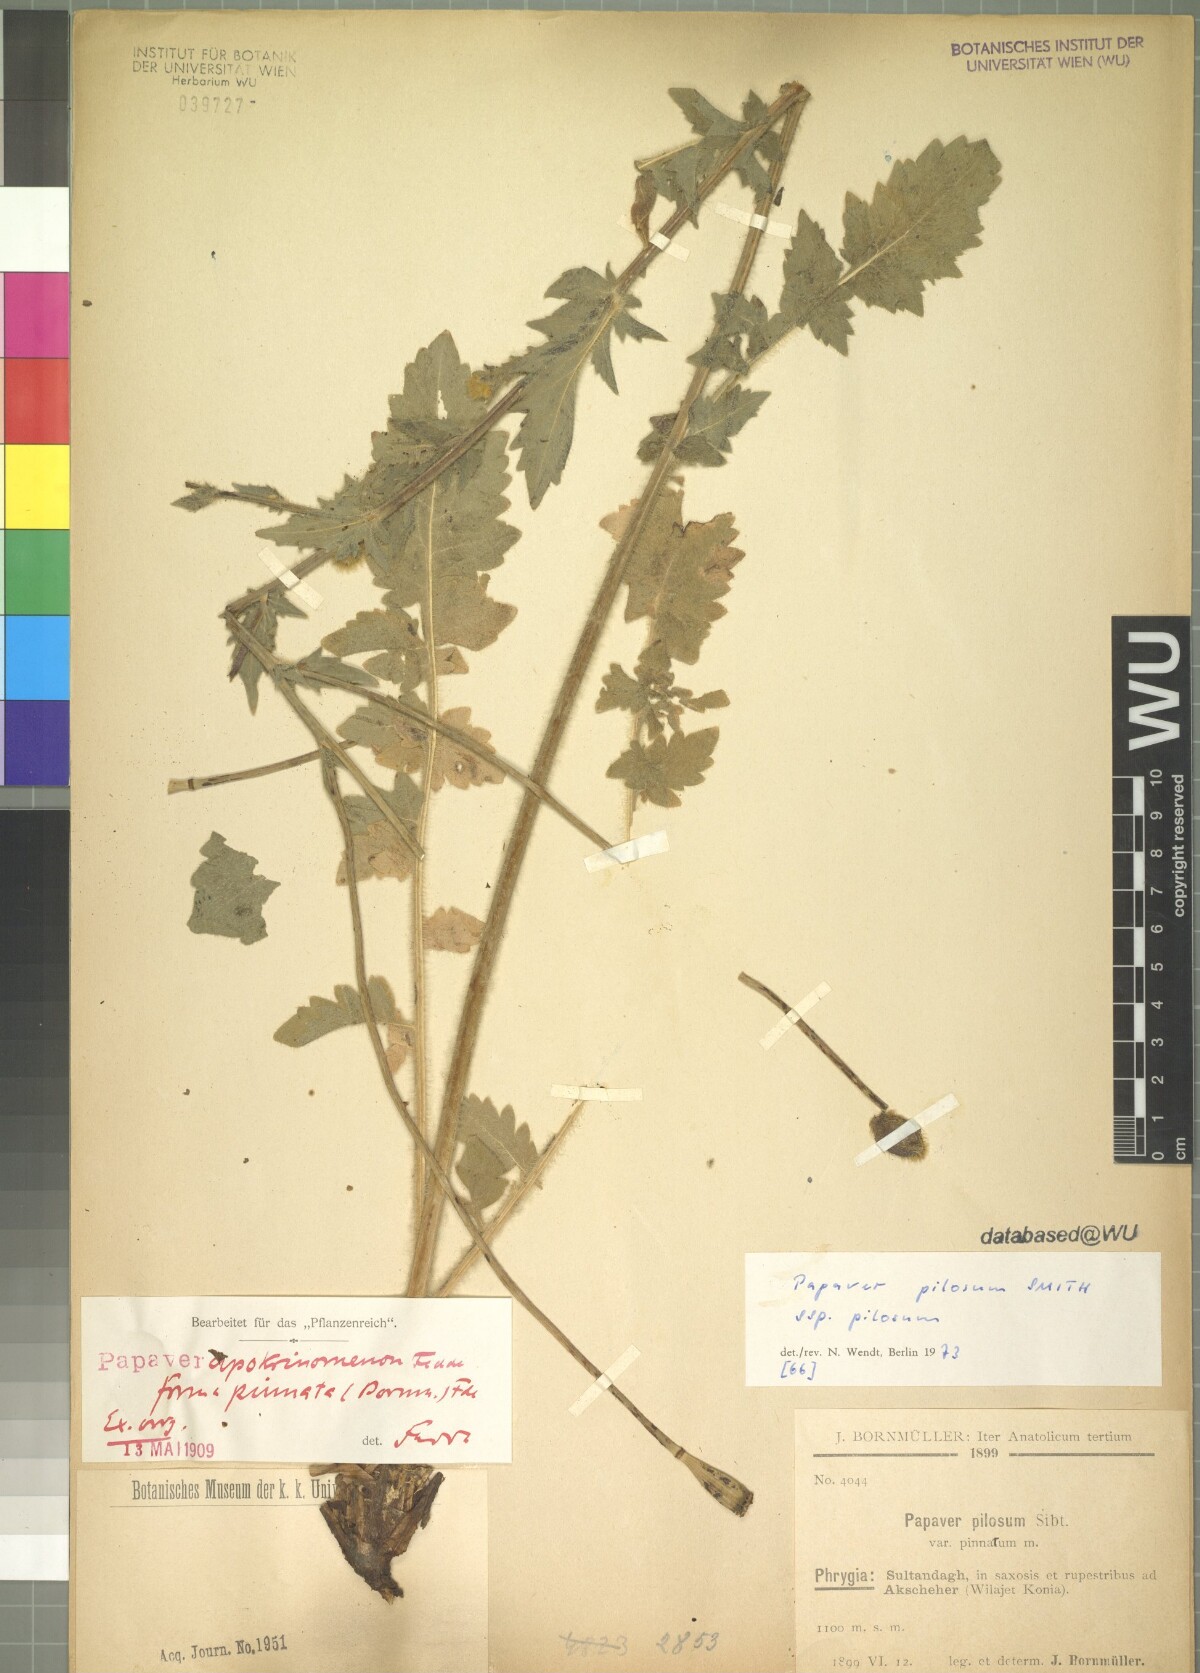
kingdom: Plantae
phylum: Tracheophyta
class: Magnoliopsida
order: Ranunculales
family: Papaveraceae
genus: Papaver
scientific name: Papaver pilosum
